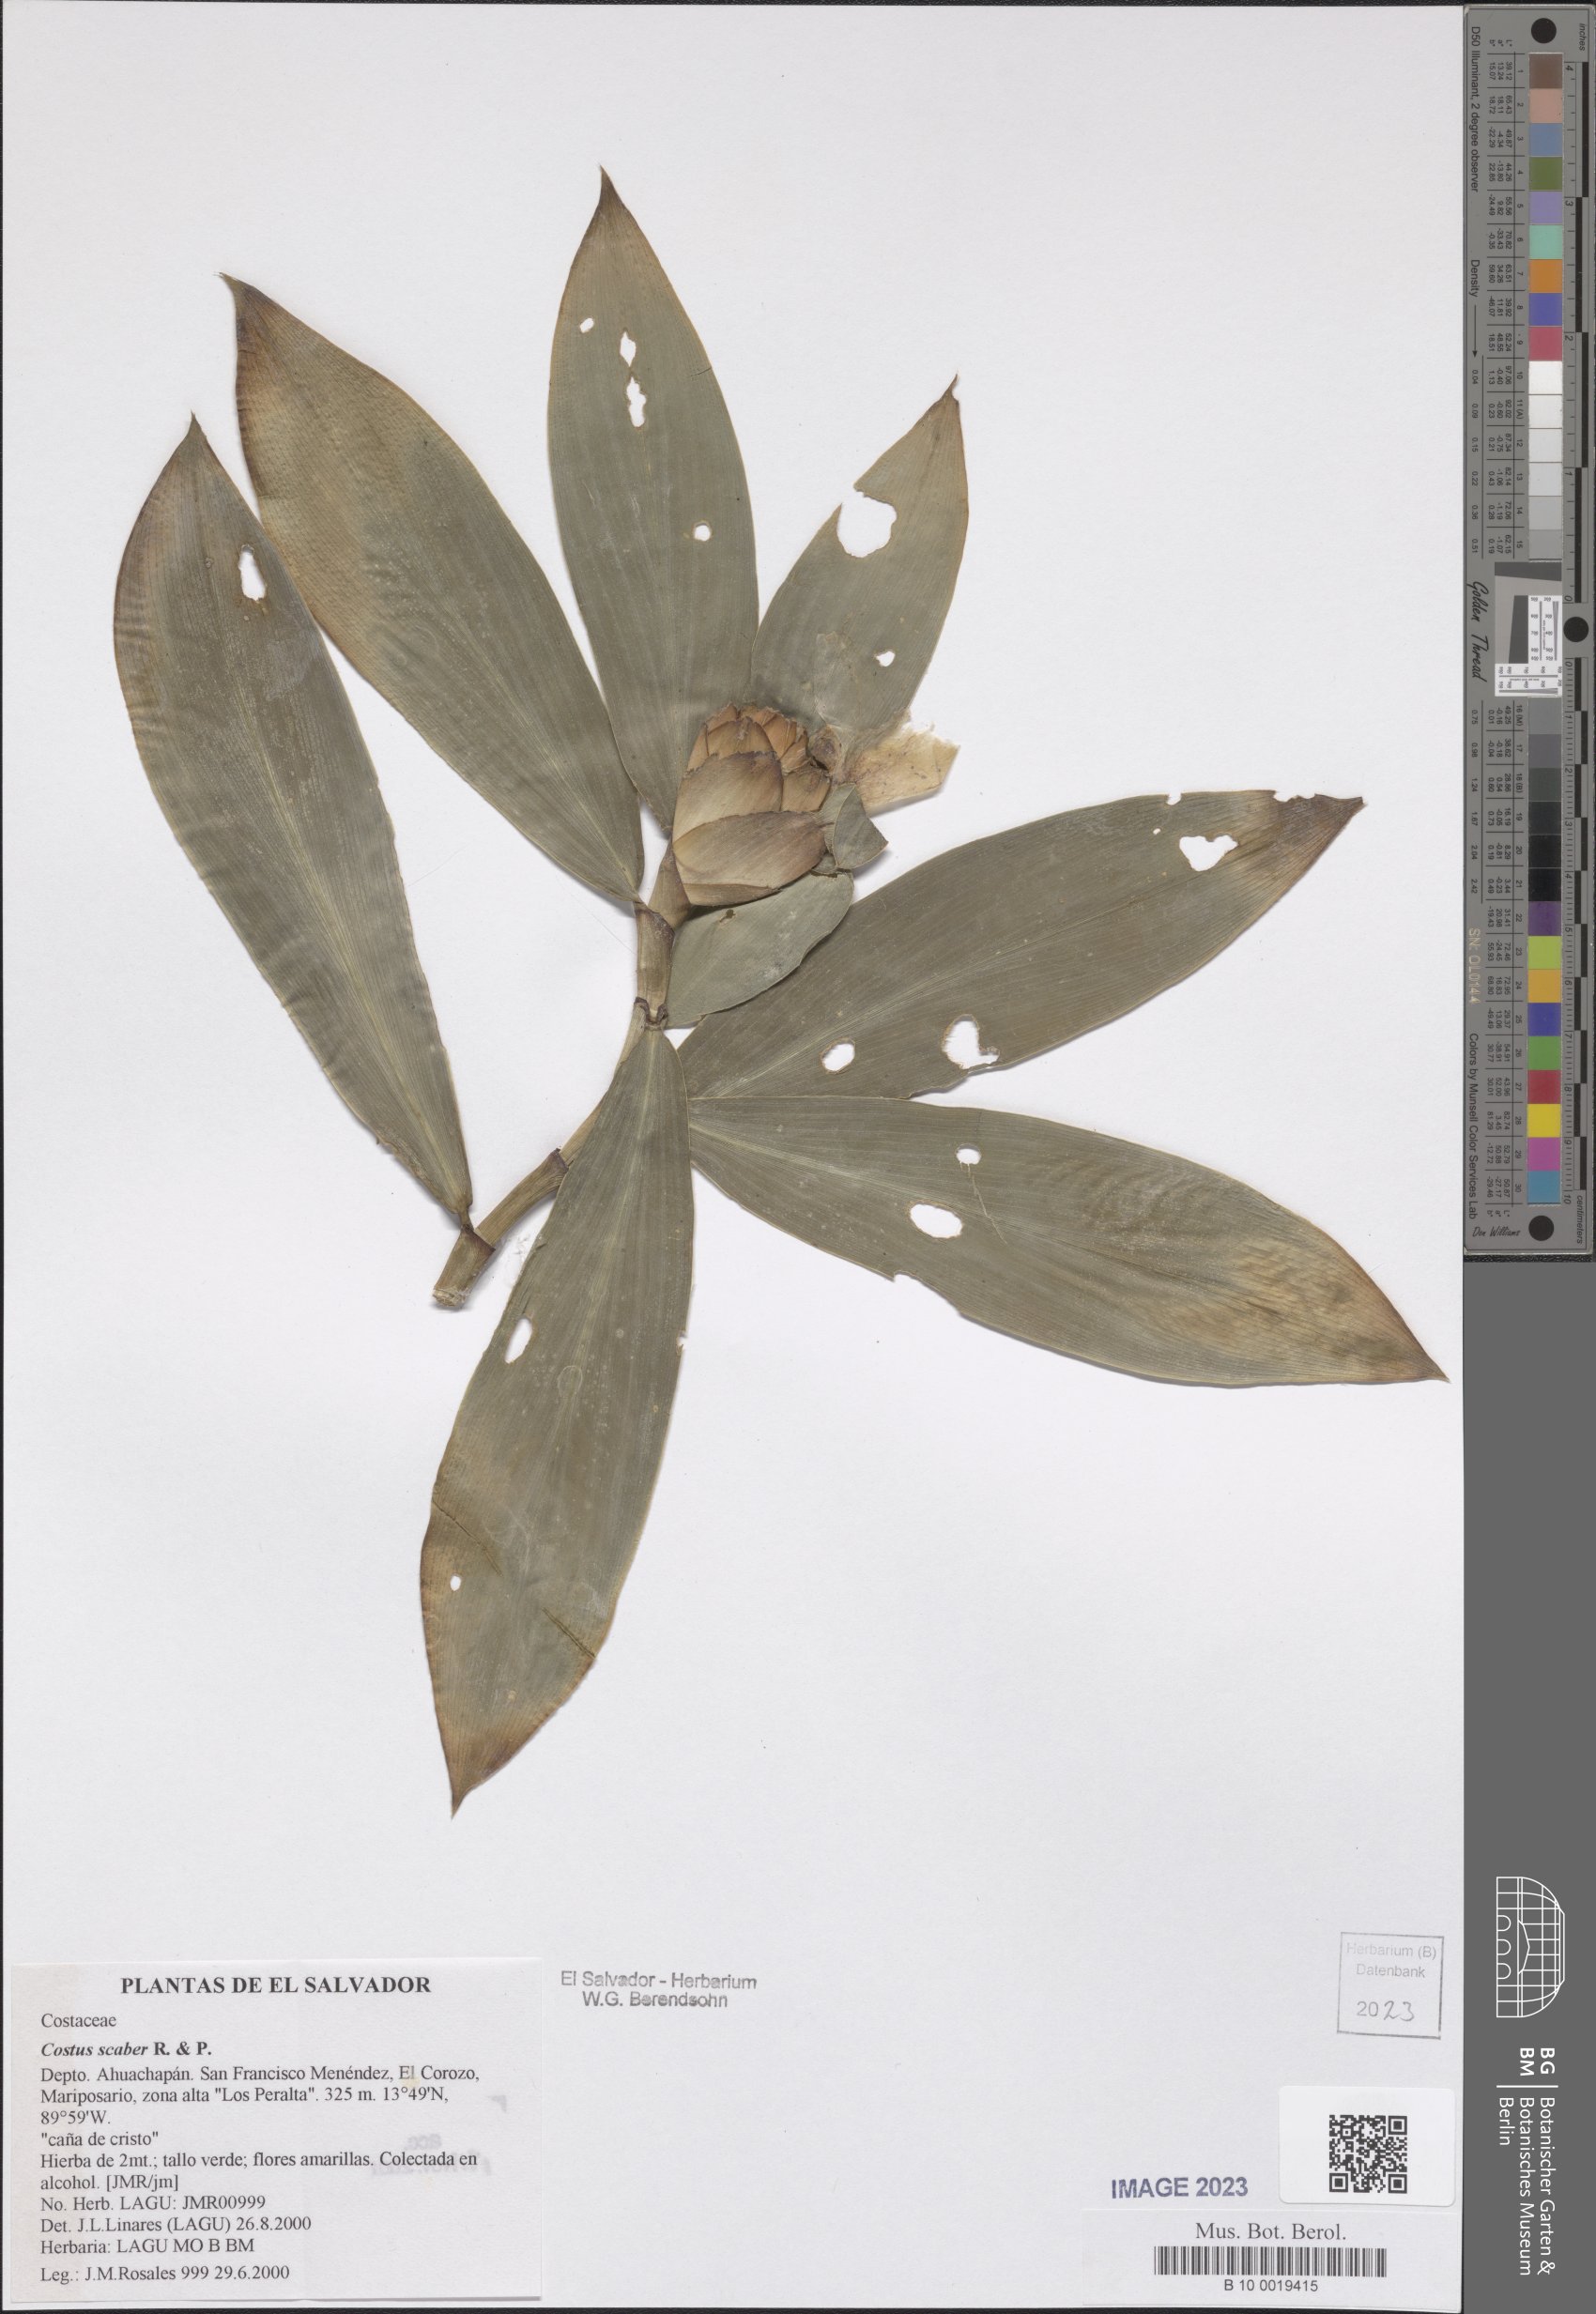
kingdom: Plantae
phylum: Tracheophyta
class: Liliopsida
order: Zingiberales
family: Costaceae
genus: Costus
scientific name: Costus scaber
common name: Spiral head ginger
